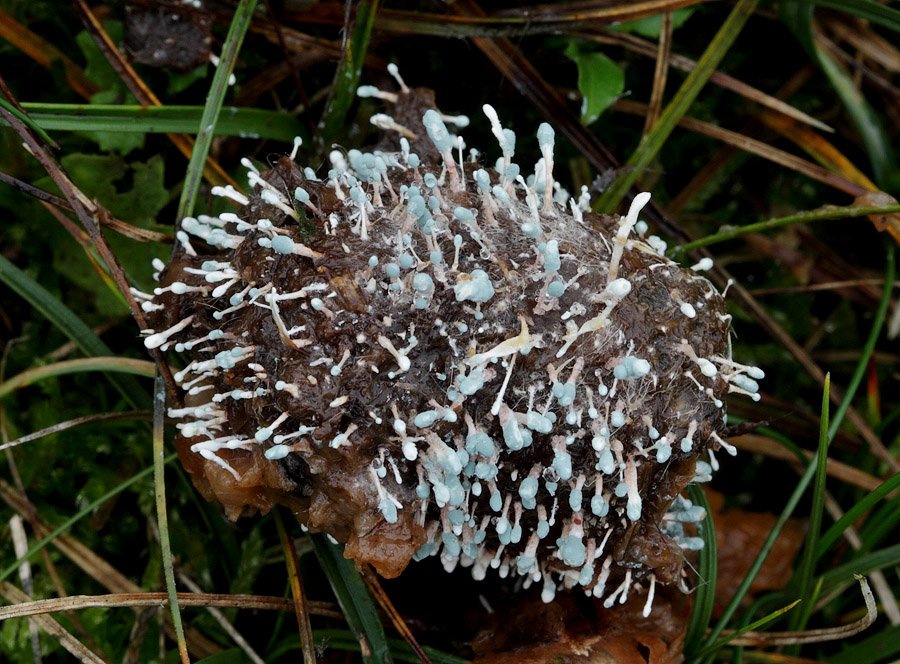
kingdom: Fungi
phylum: Ascomycota
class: Eurotiomycetes
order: Eurotiales
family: Aspergillaceae
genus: Penicillium
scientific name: Penicillium vulpinum
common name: kølle-penselskimmel
